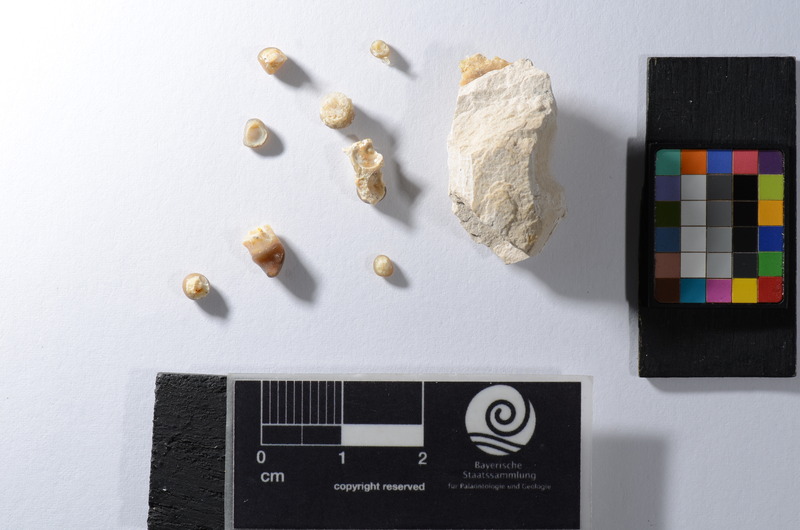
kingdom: Animalia
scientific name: Animalia
